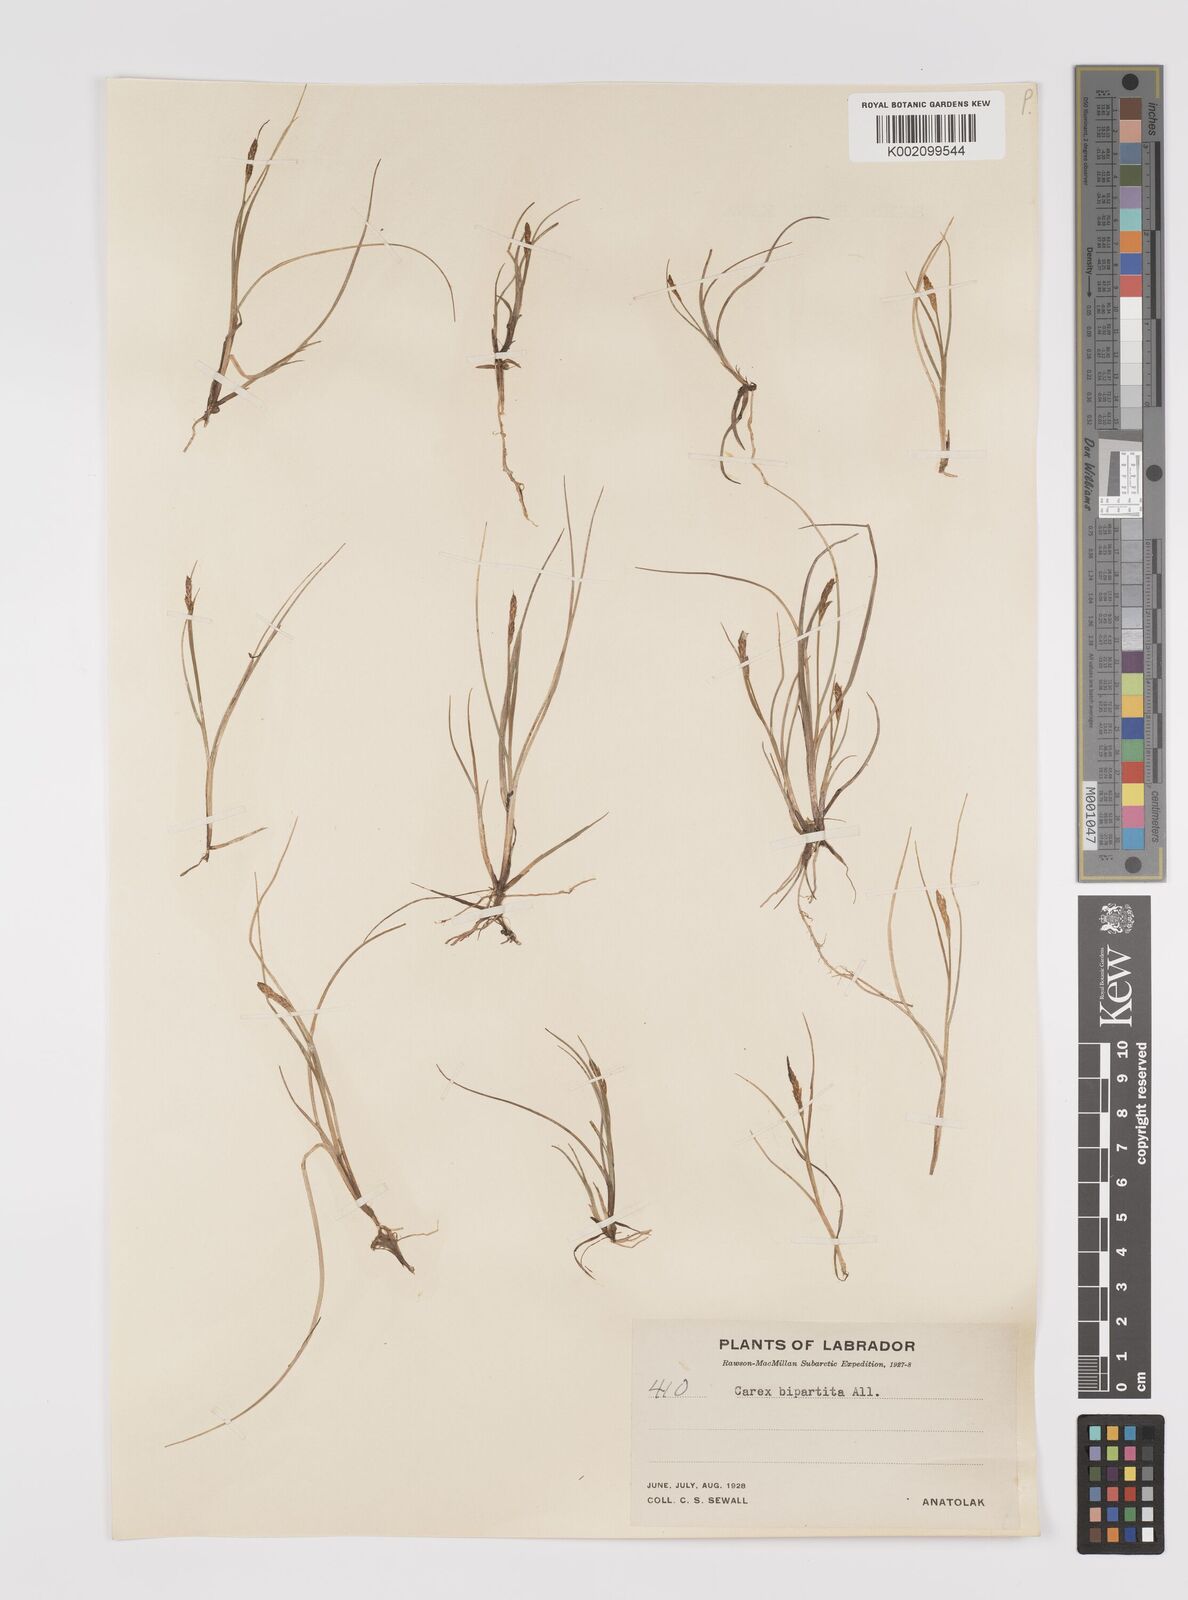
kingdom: Plantae
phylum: Tracheophyta
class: Liliopsida
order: Poales
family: Cyperaceae
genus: Carex
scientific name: Carex lachenalii
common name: Hare's-foot sedge
